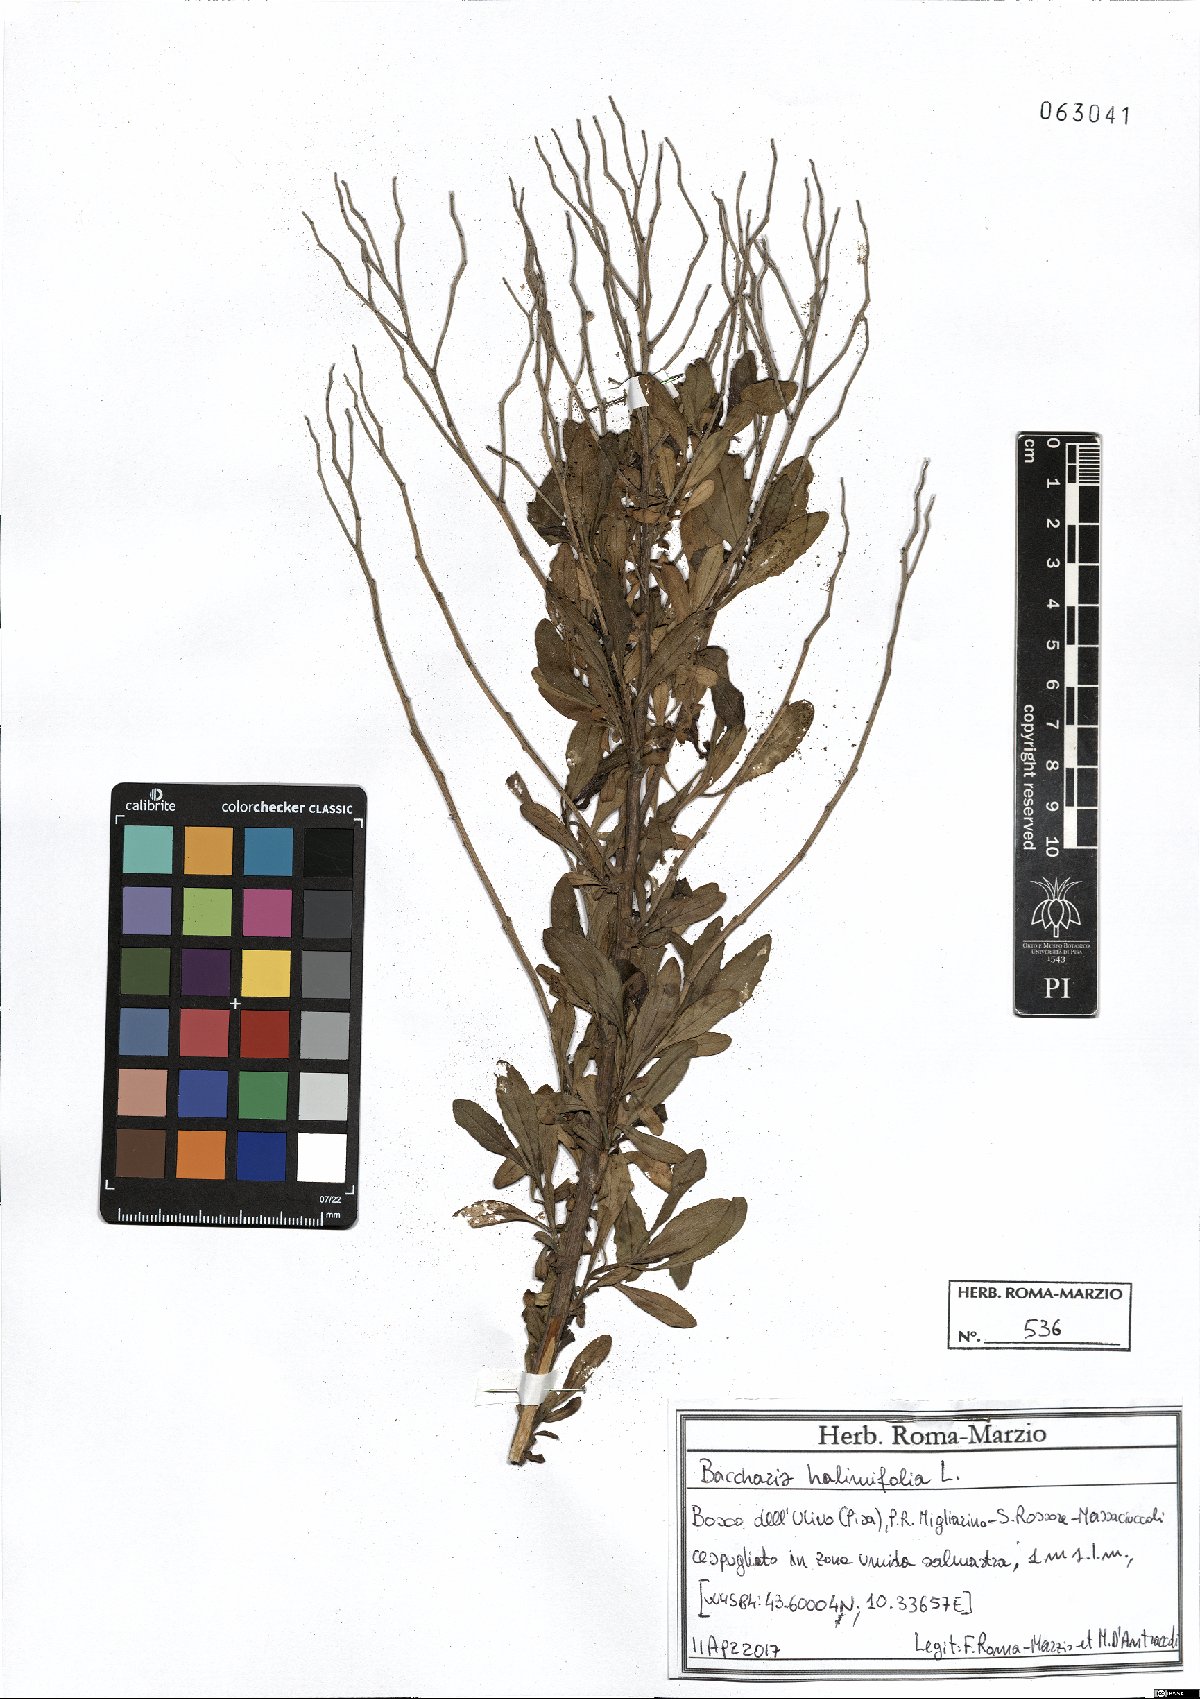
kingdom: Plantae
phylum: Tracheophyta
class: Magnoliopsida
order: Asterales
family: Asteraceae
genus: Baccharis
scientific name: Baccharis halimifolia
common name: Eastern baccharis
